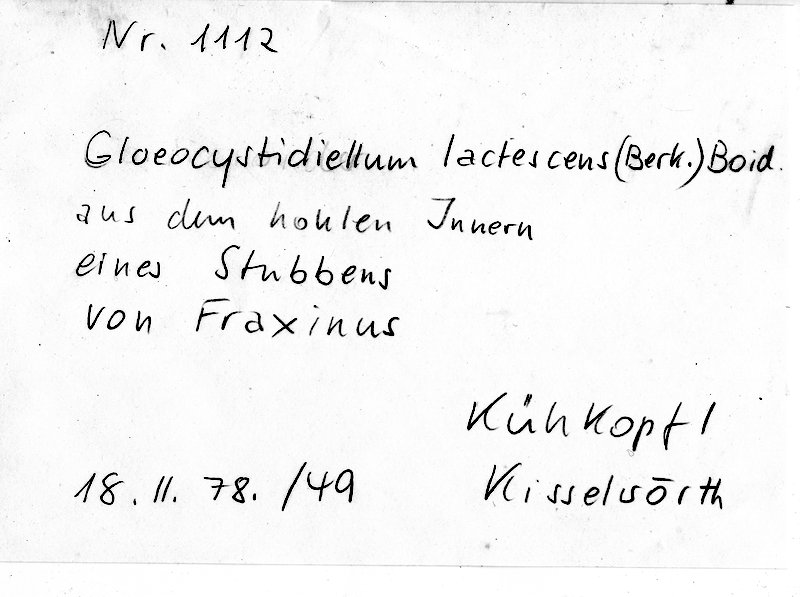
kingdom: Plantae
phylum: Tracheophyta
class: Magnoliopsida
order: Lamiales
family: Oleaceae
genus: Fraxinus
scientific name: Fraxinus
